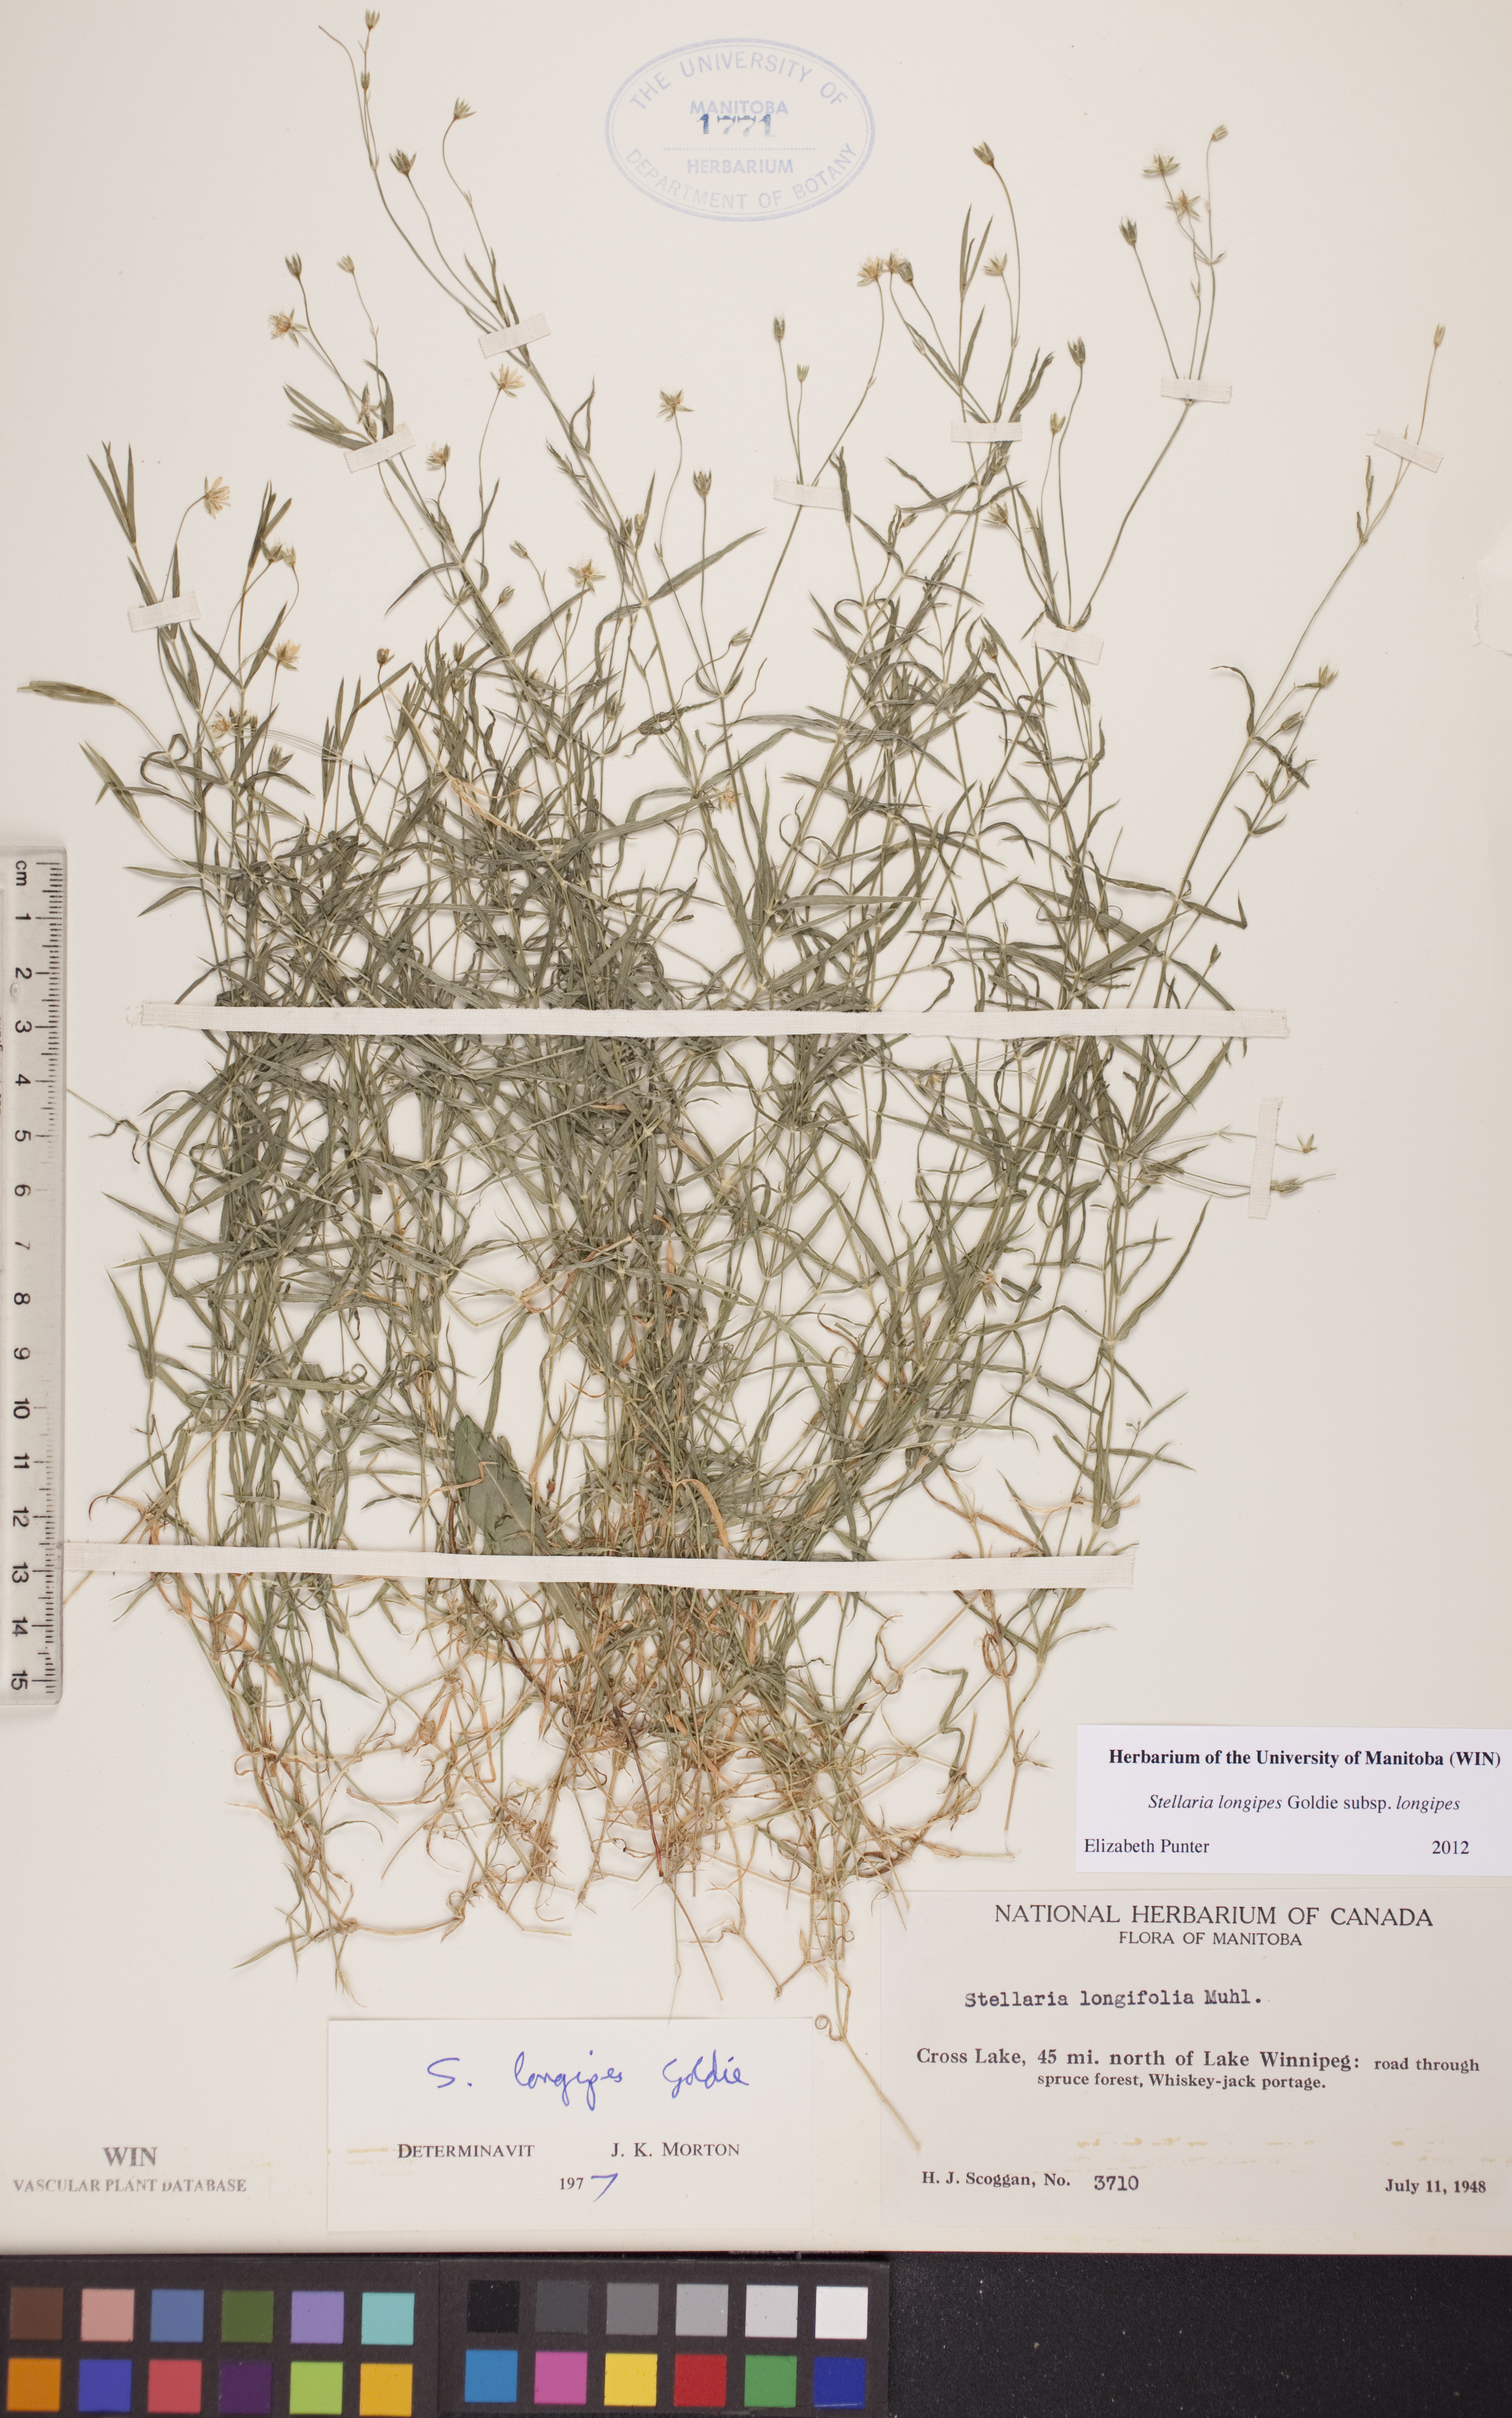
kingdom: Plantae
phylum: Tracheophyta
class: Magnoliopsida
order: Caryophyllales
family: Caryophyllaceae
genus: Stellaria
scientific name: Stellaria longipes
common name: Goldie's starwort
